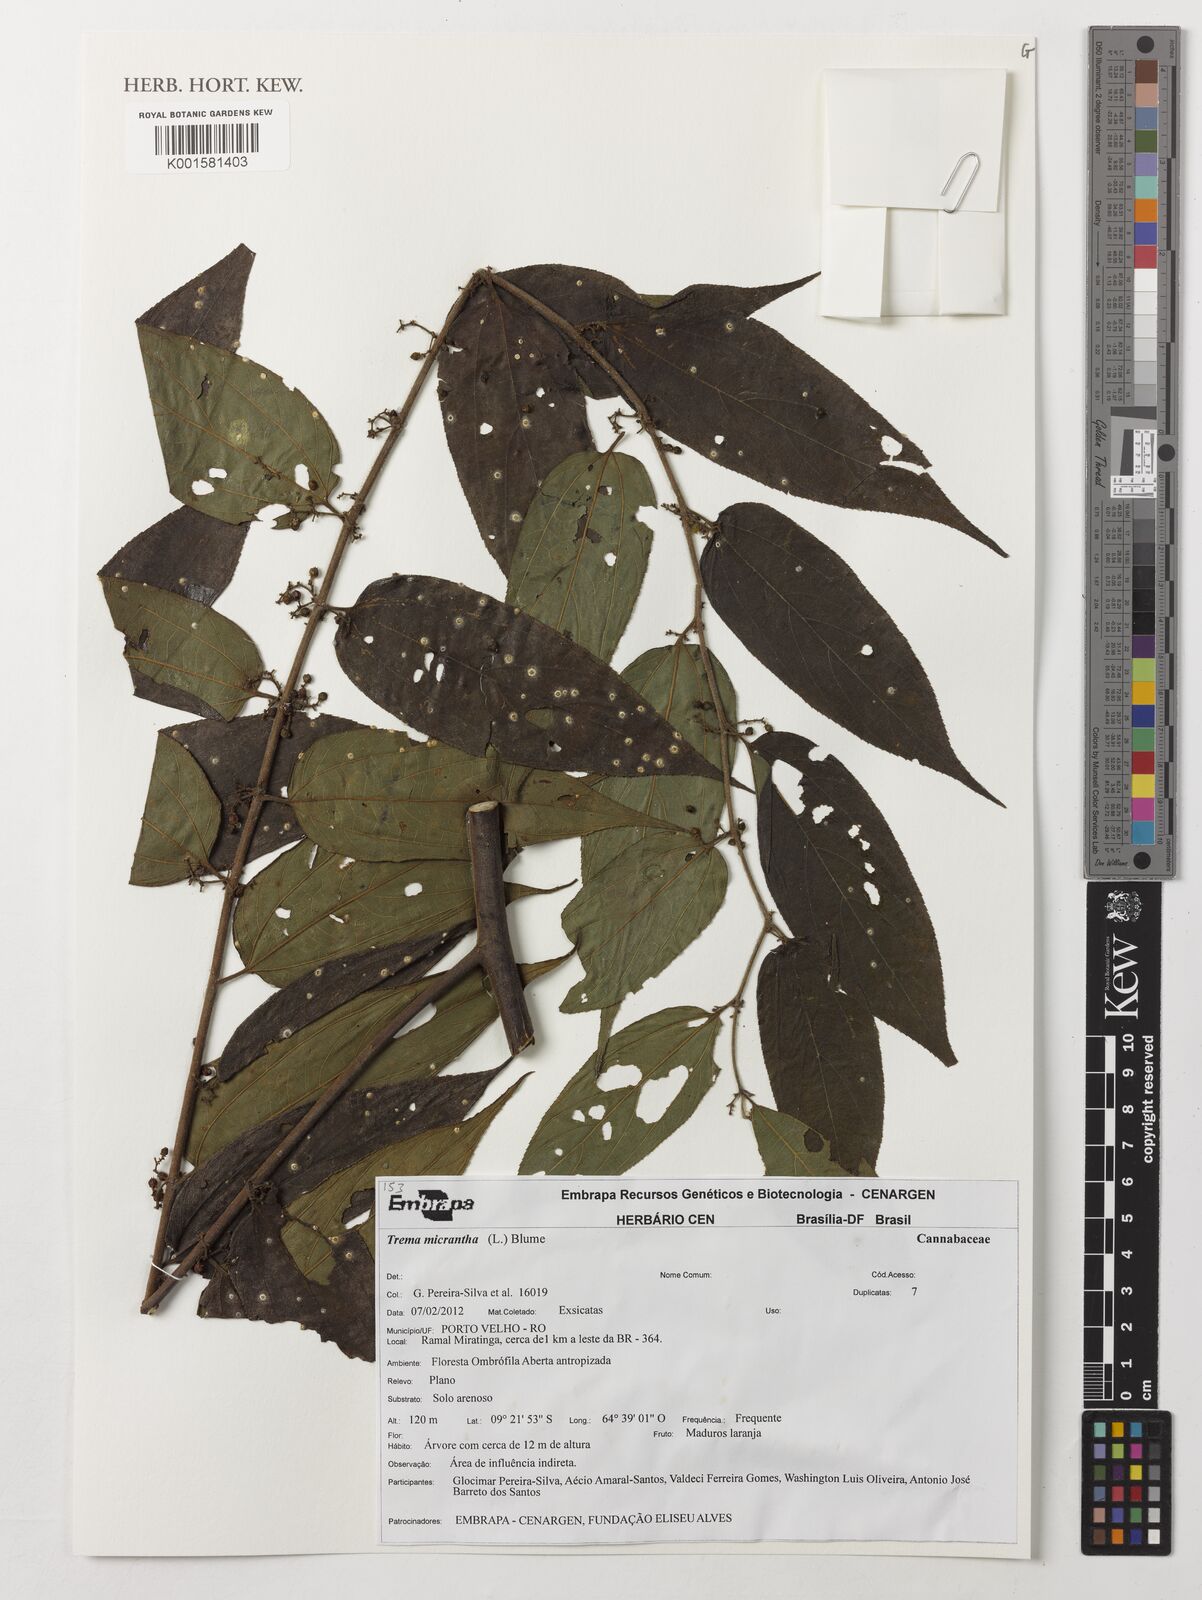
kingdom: Plantae
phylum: Tracheophyta
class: Magnoliopsida
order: Rosales
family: Cannabaceae
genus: Trema
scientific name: Trema micranthum
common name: Jamaican nettletree
